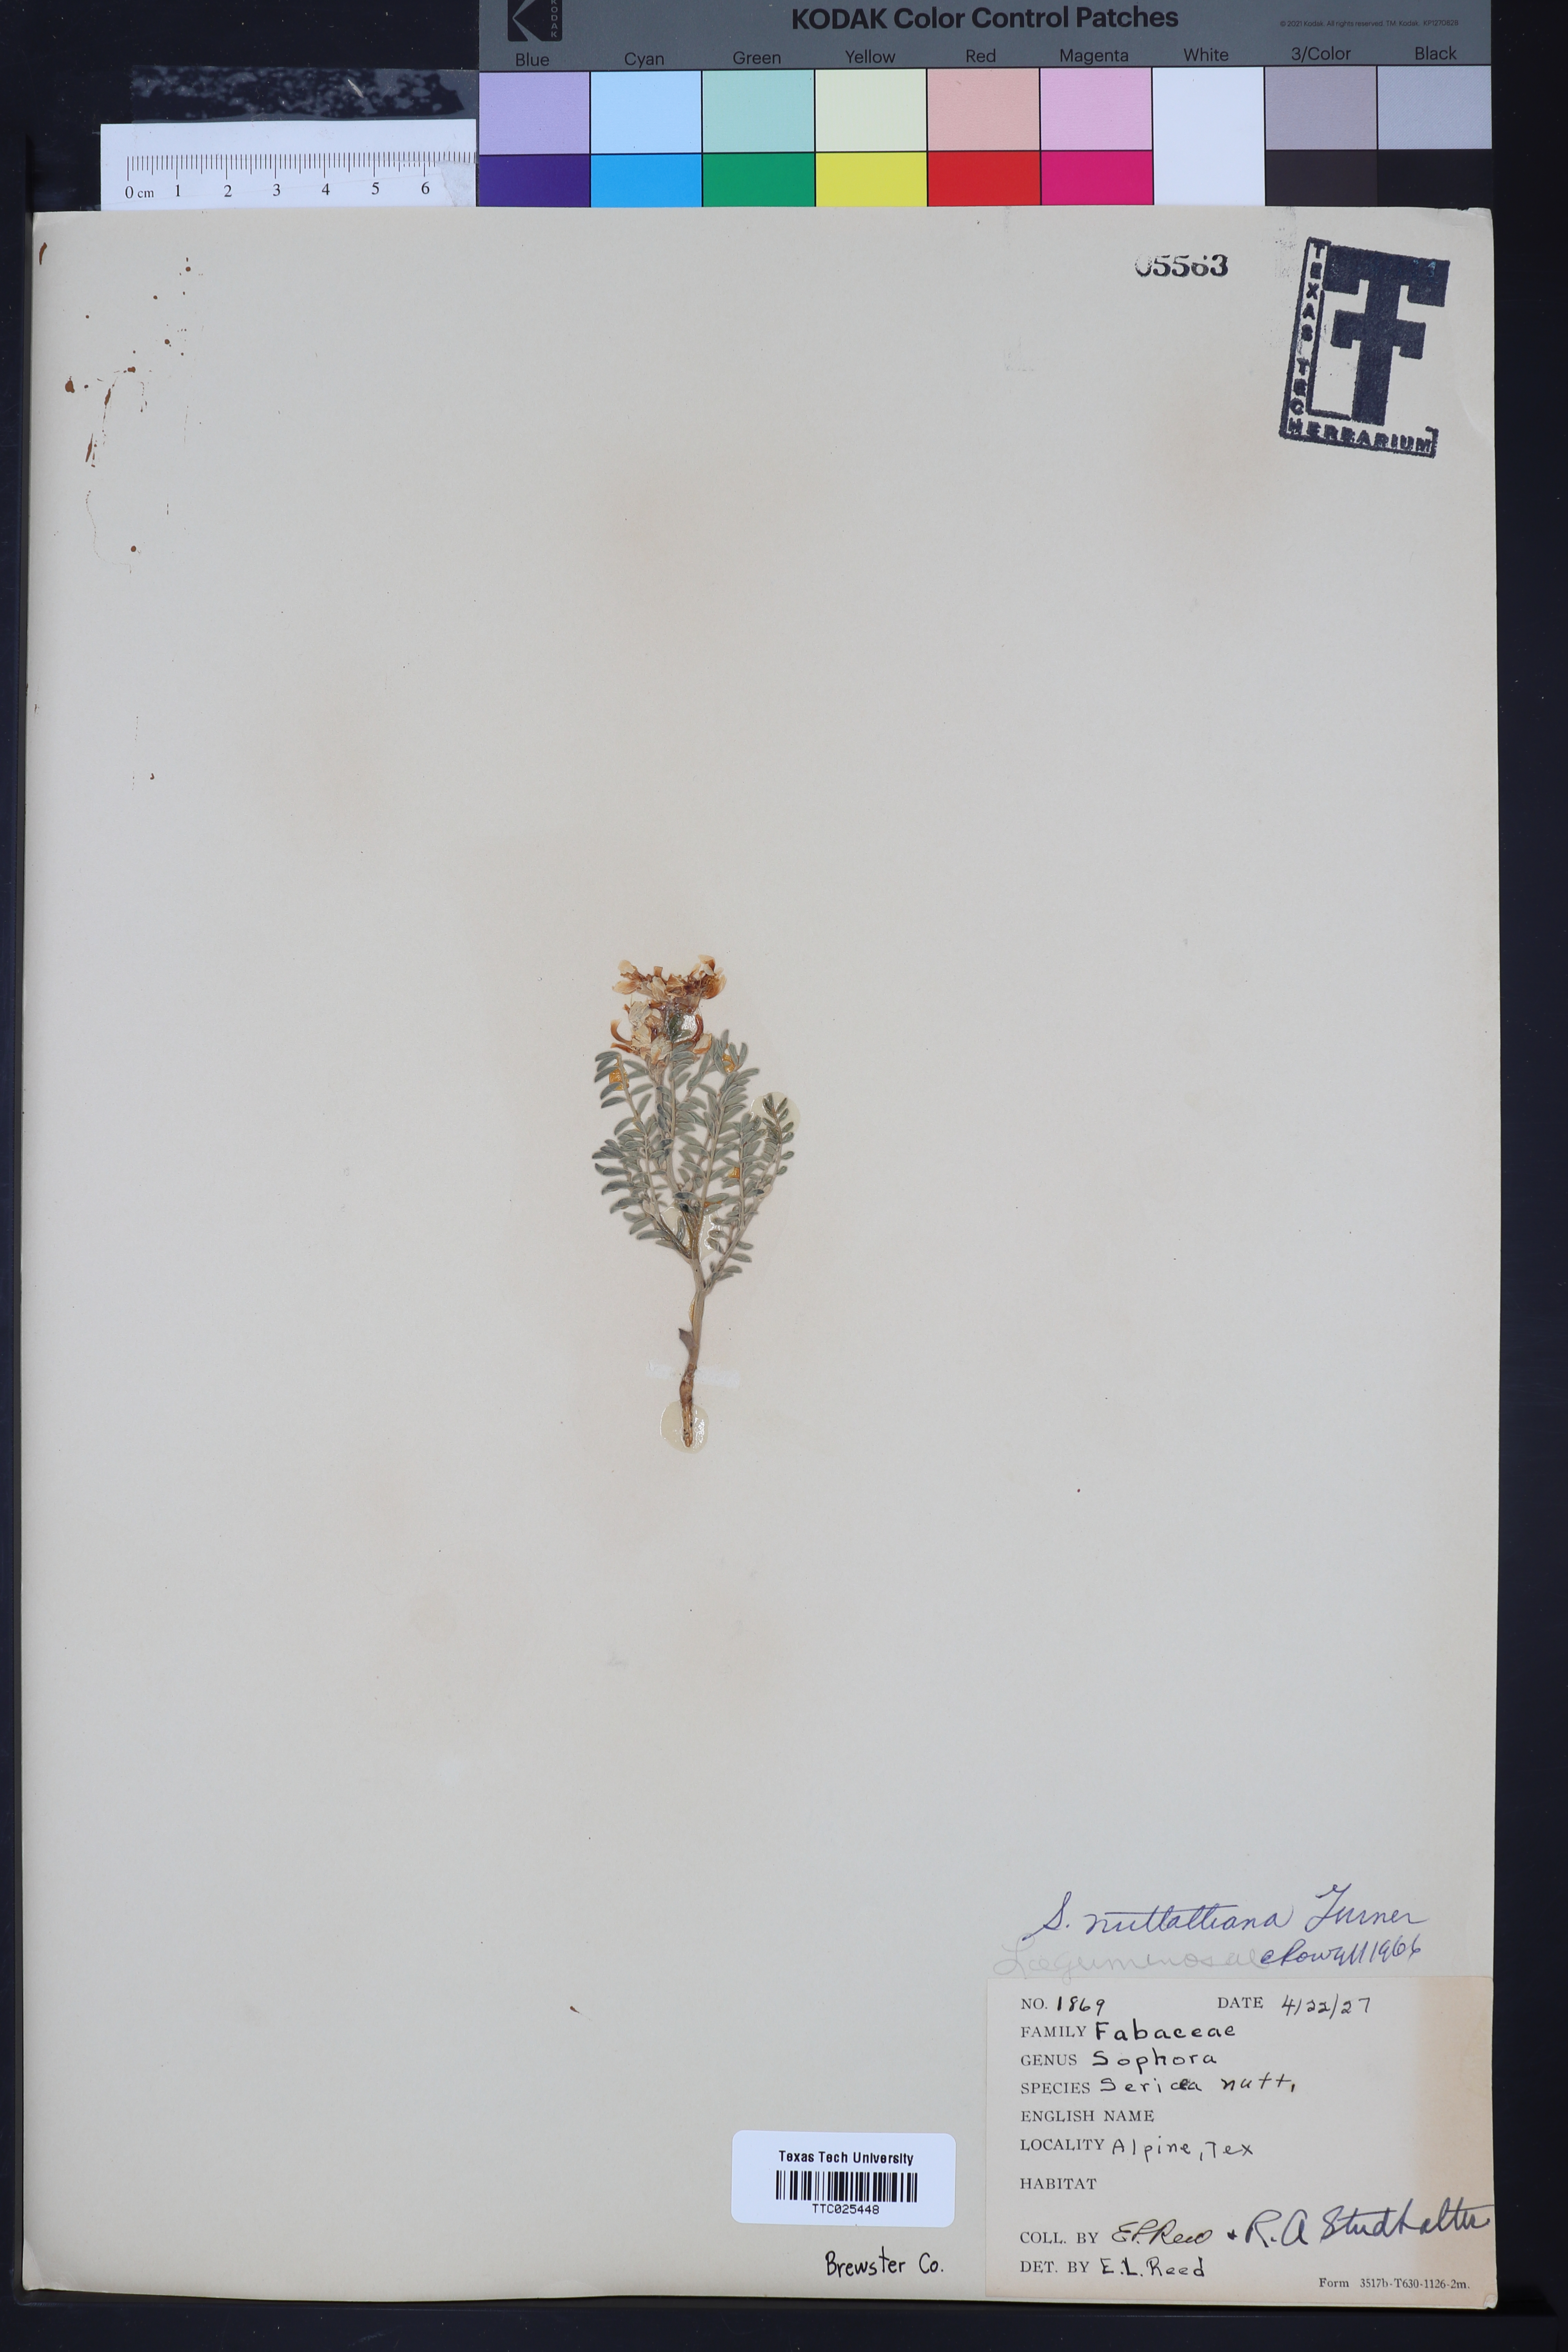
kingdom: Plantae
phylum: Tracheophyta
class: Magnoliopsida
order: Fabales
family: Fabaceae
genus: Sophora
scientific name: Sophora nuttalliana
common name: Silky sophora
